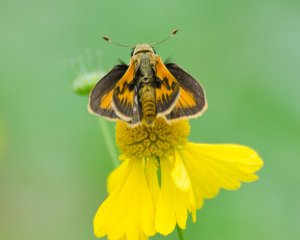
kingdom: Animalia
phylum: Arthropoda
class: Insecta
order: Lepidoptera
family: Hesperiidae
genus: Polites
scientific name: Polites vibex
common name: Whirlabout
